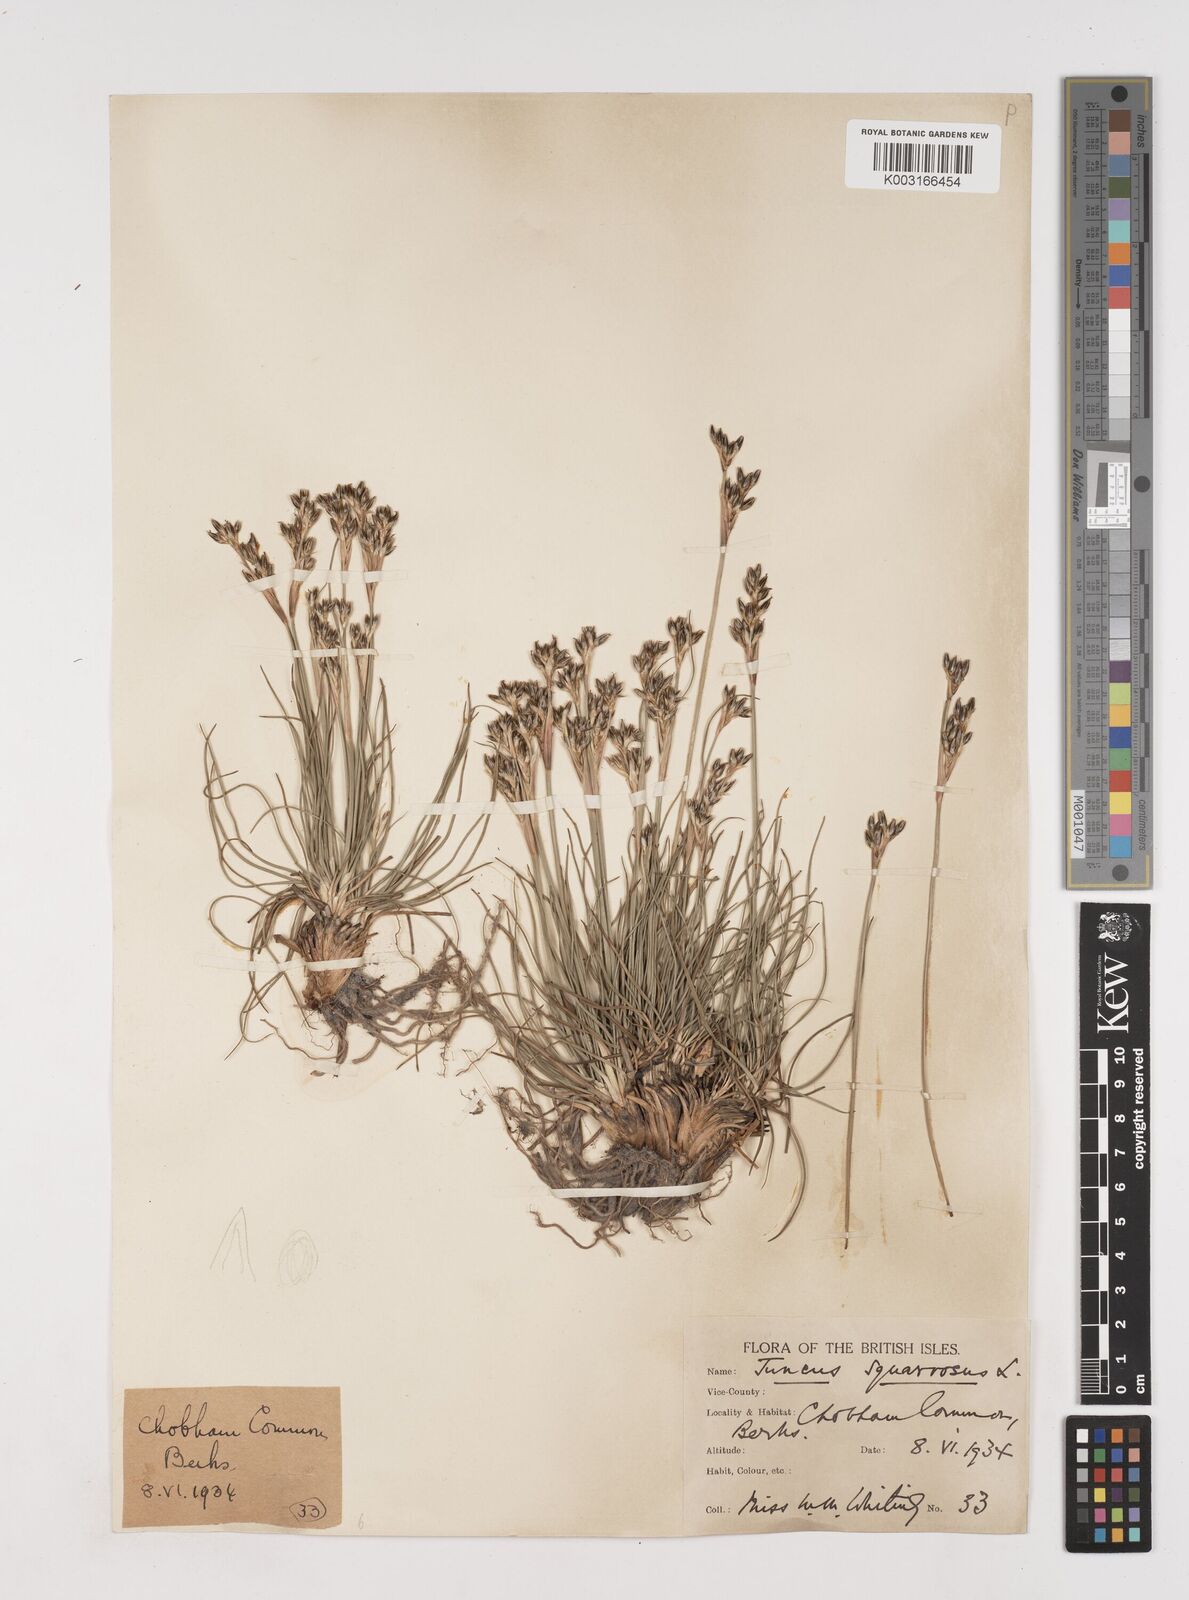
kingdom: Plantae
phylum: Tracheophyta
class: Liliopsida
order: Poales
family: Juncaceae
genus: Juncus
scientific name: Juncus squarrosus
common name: Heath rush
